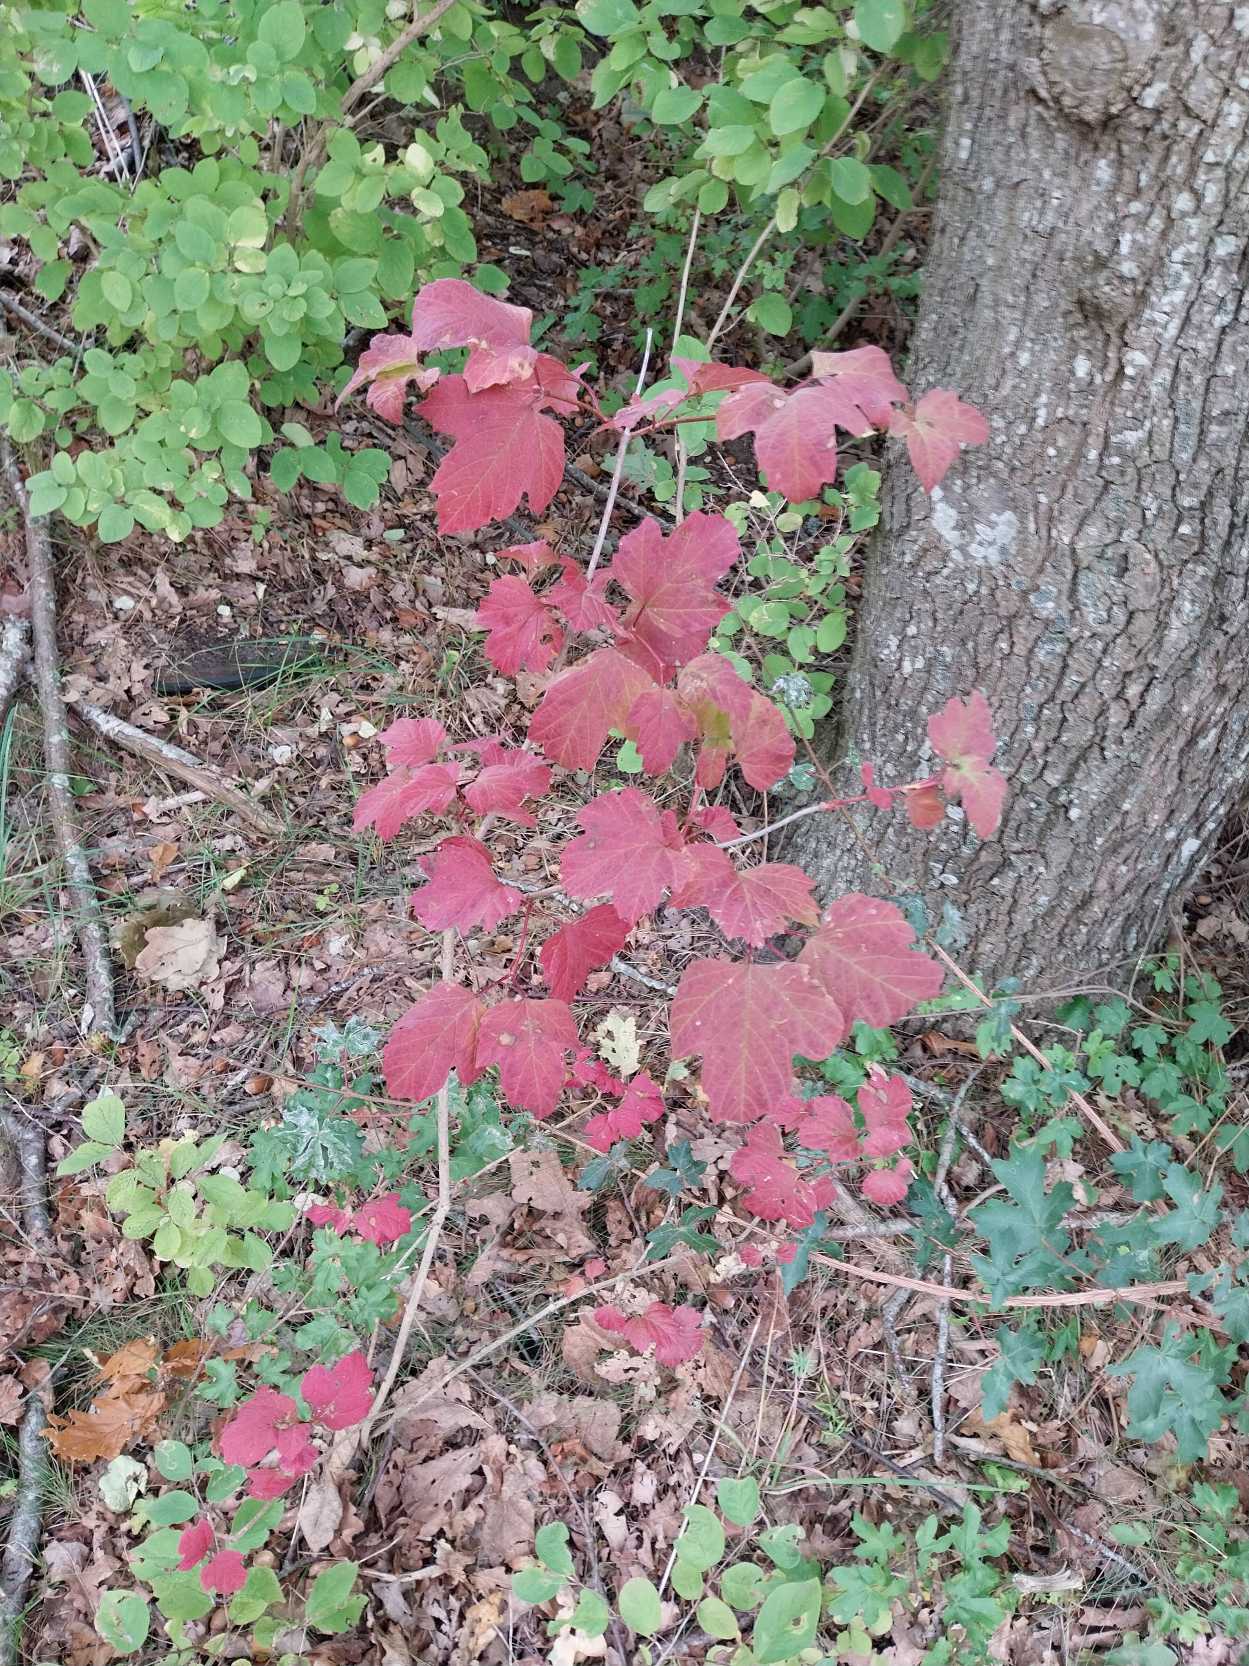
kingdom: Plantae
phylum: Tracheophyta
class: Magnoliopsida
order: Dipsacales
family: Viburnaceae
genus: Viburnum
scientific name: Viburnum opulus
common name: Kvalkved
